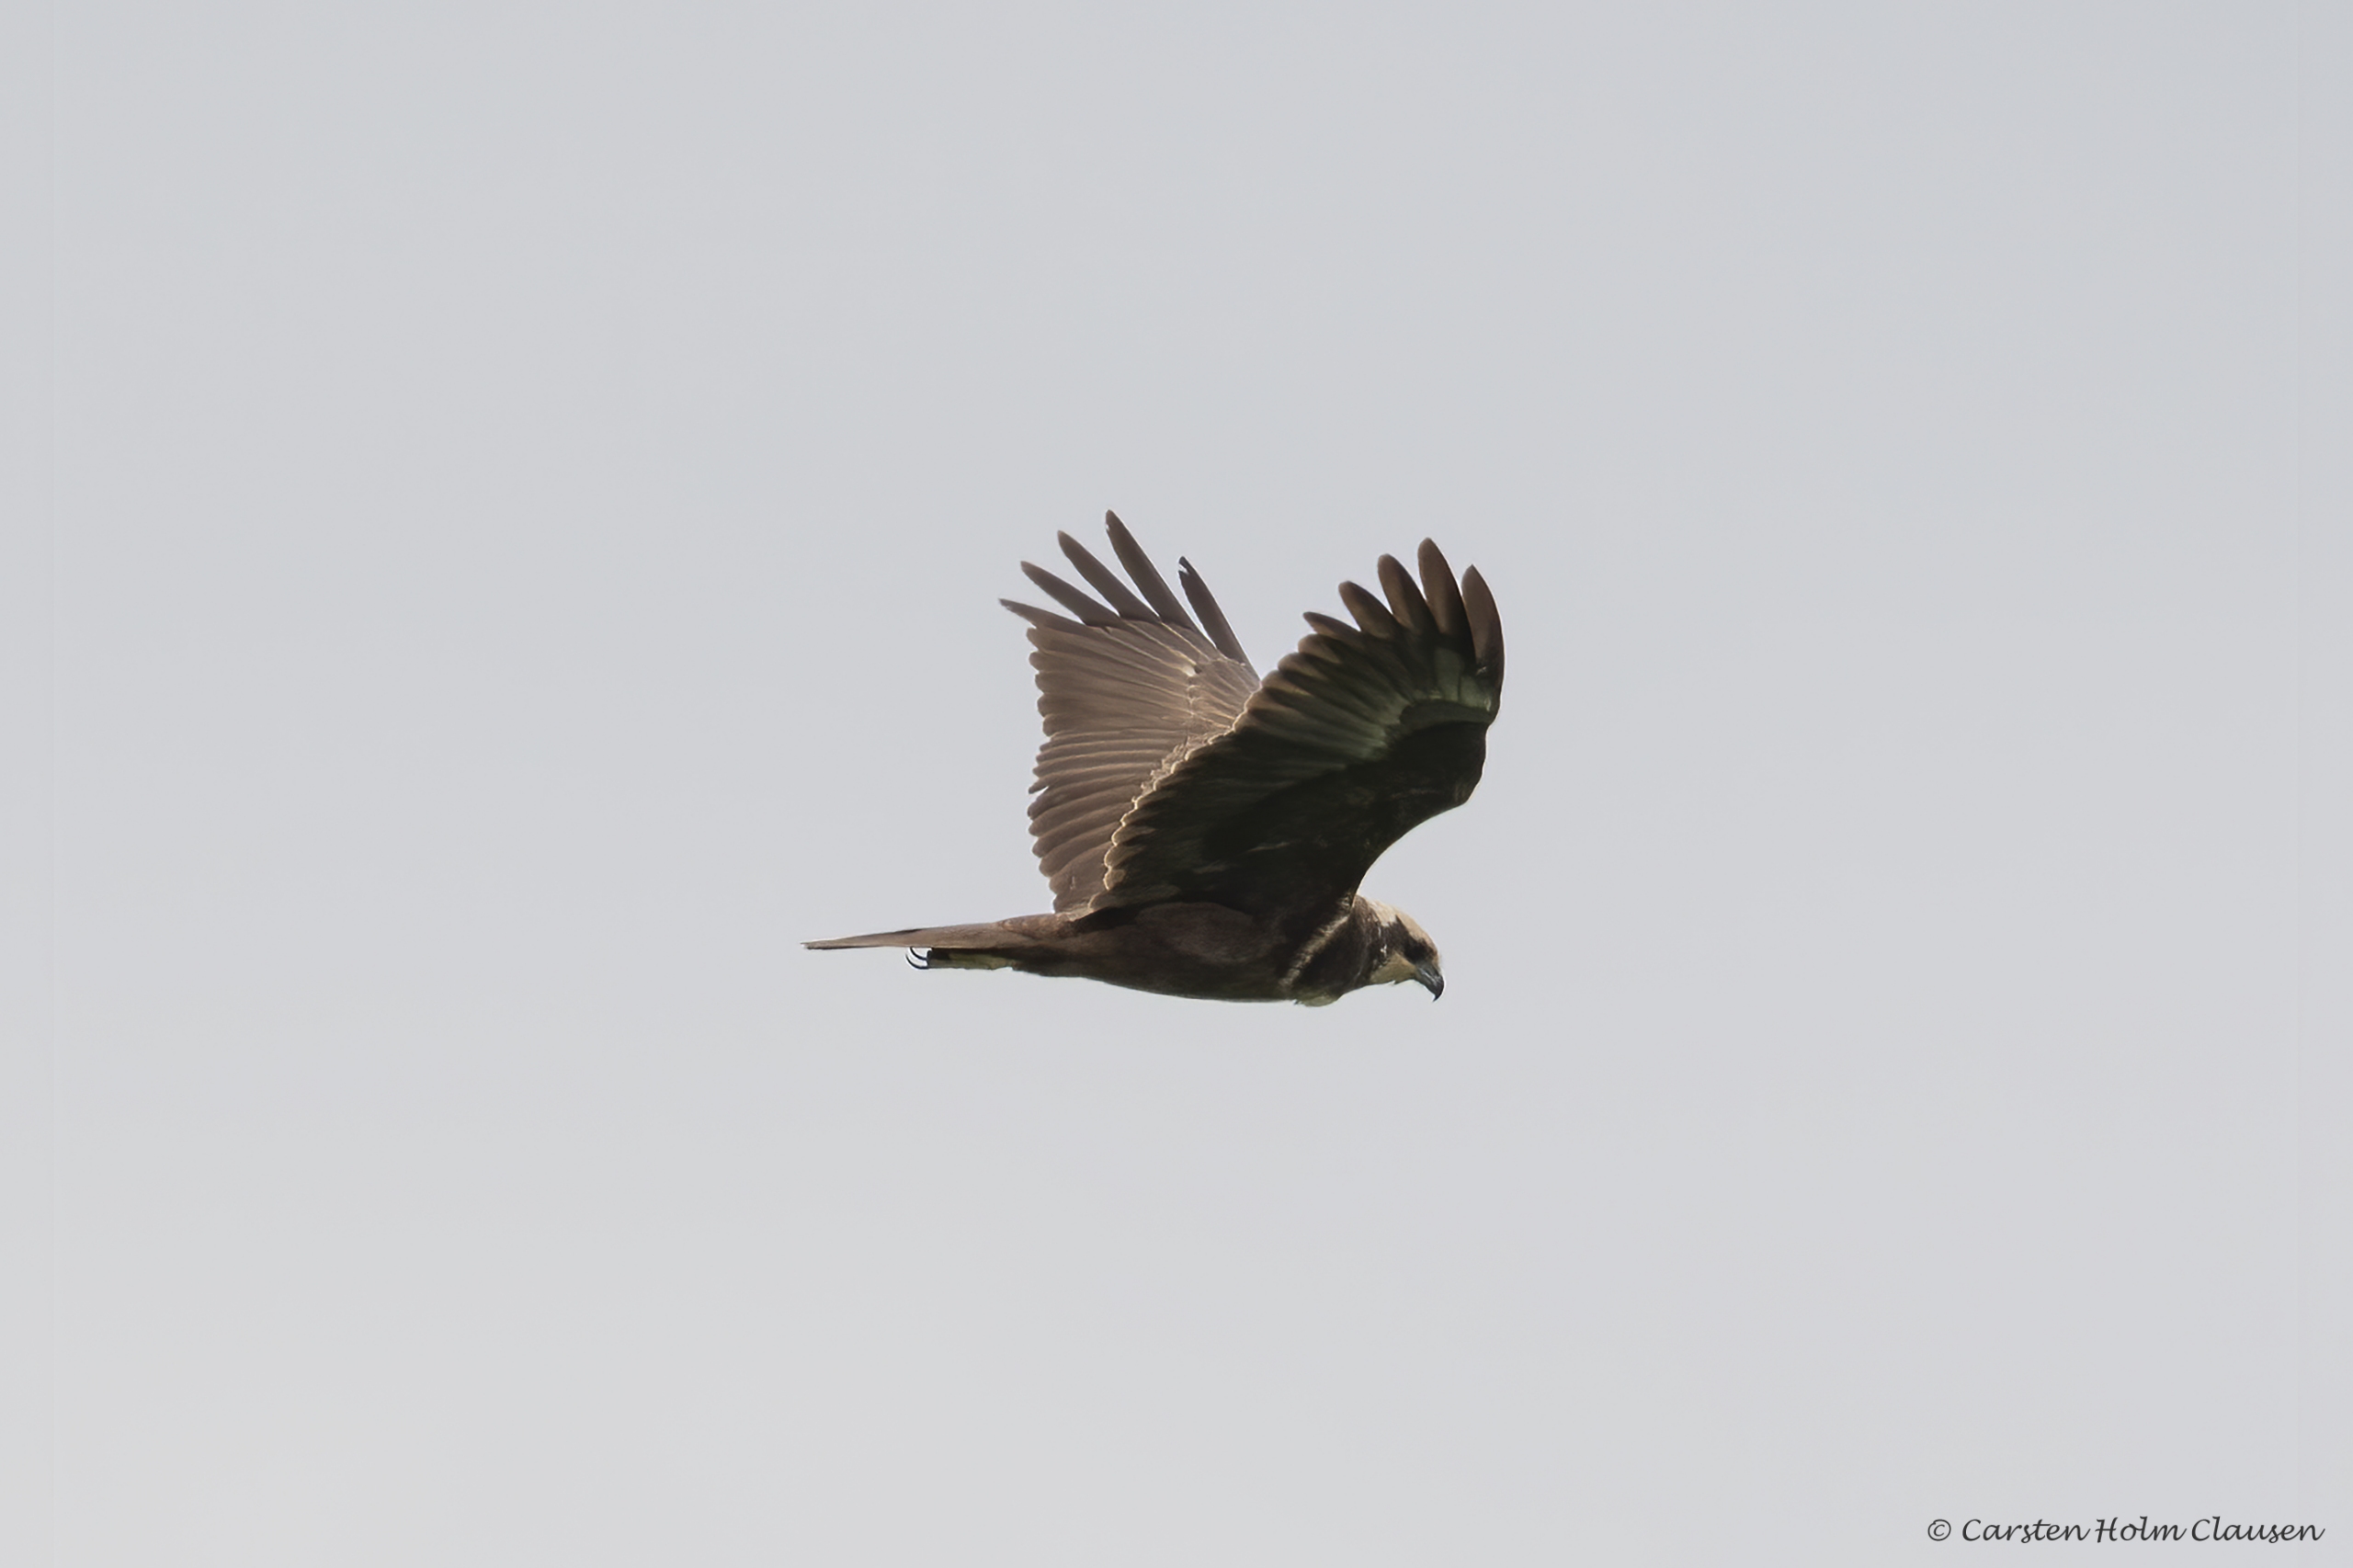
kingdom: Animalia
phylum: Chordata
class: Aves
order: Accipitriformes
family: Accipitridae
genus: Circus
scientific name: Circus aeruginosus
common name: Rørhøg
